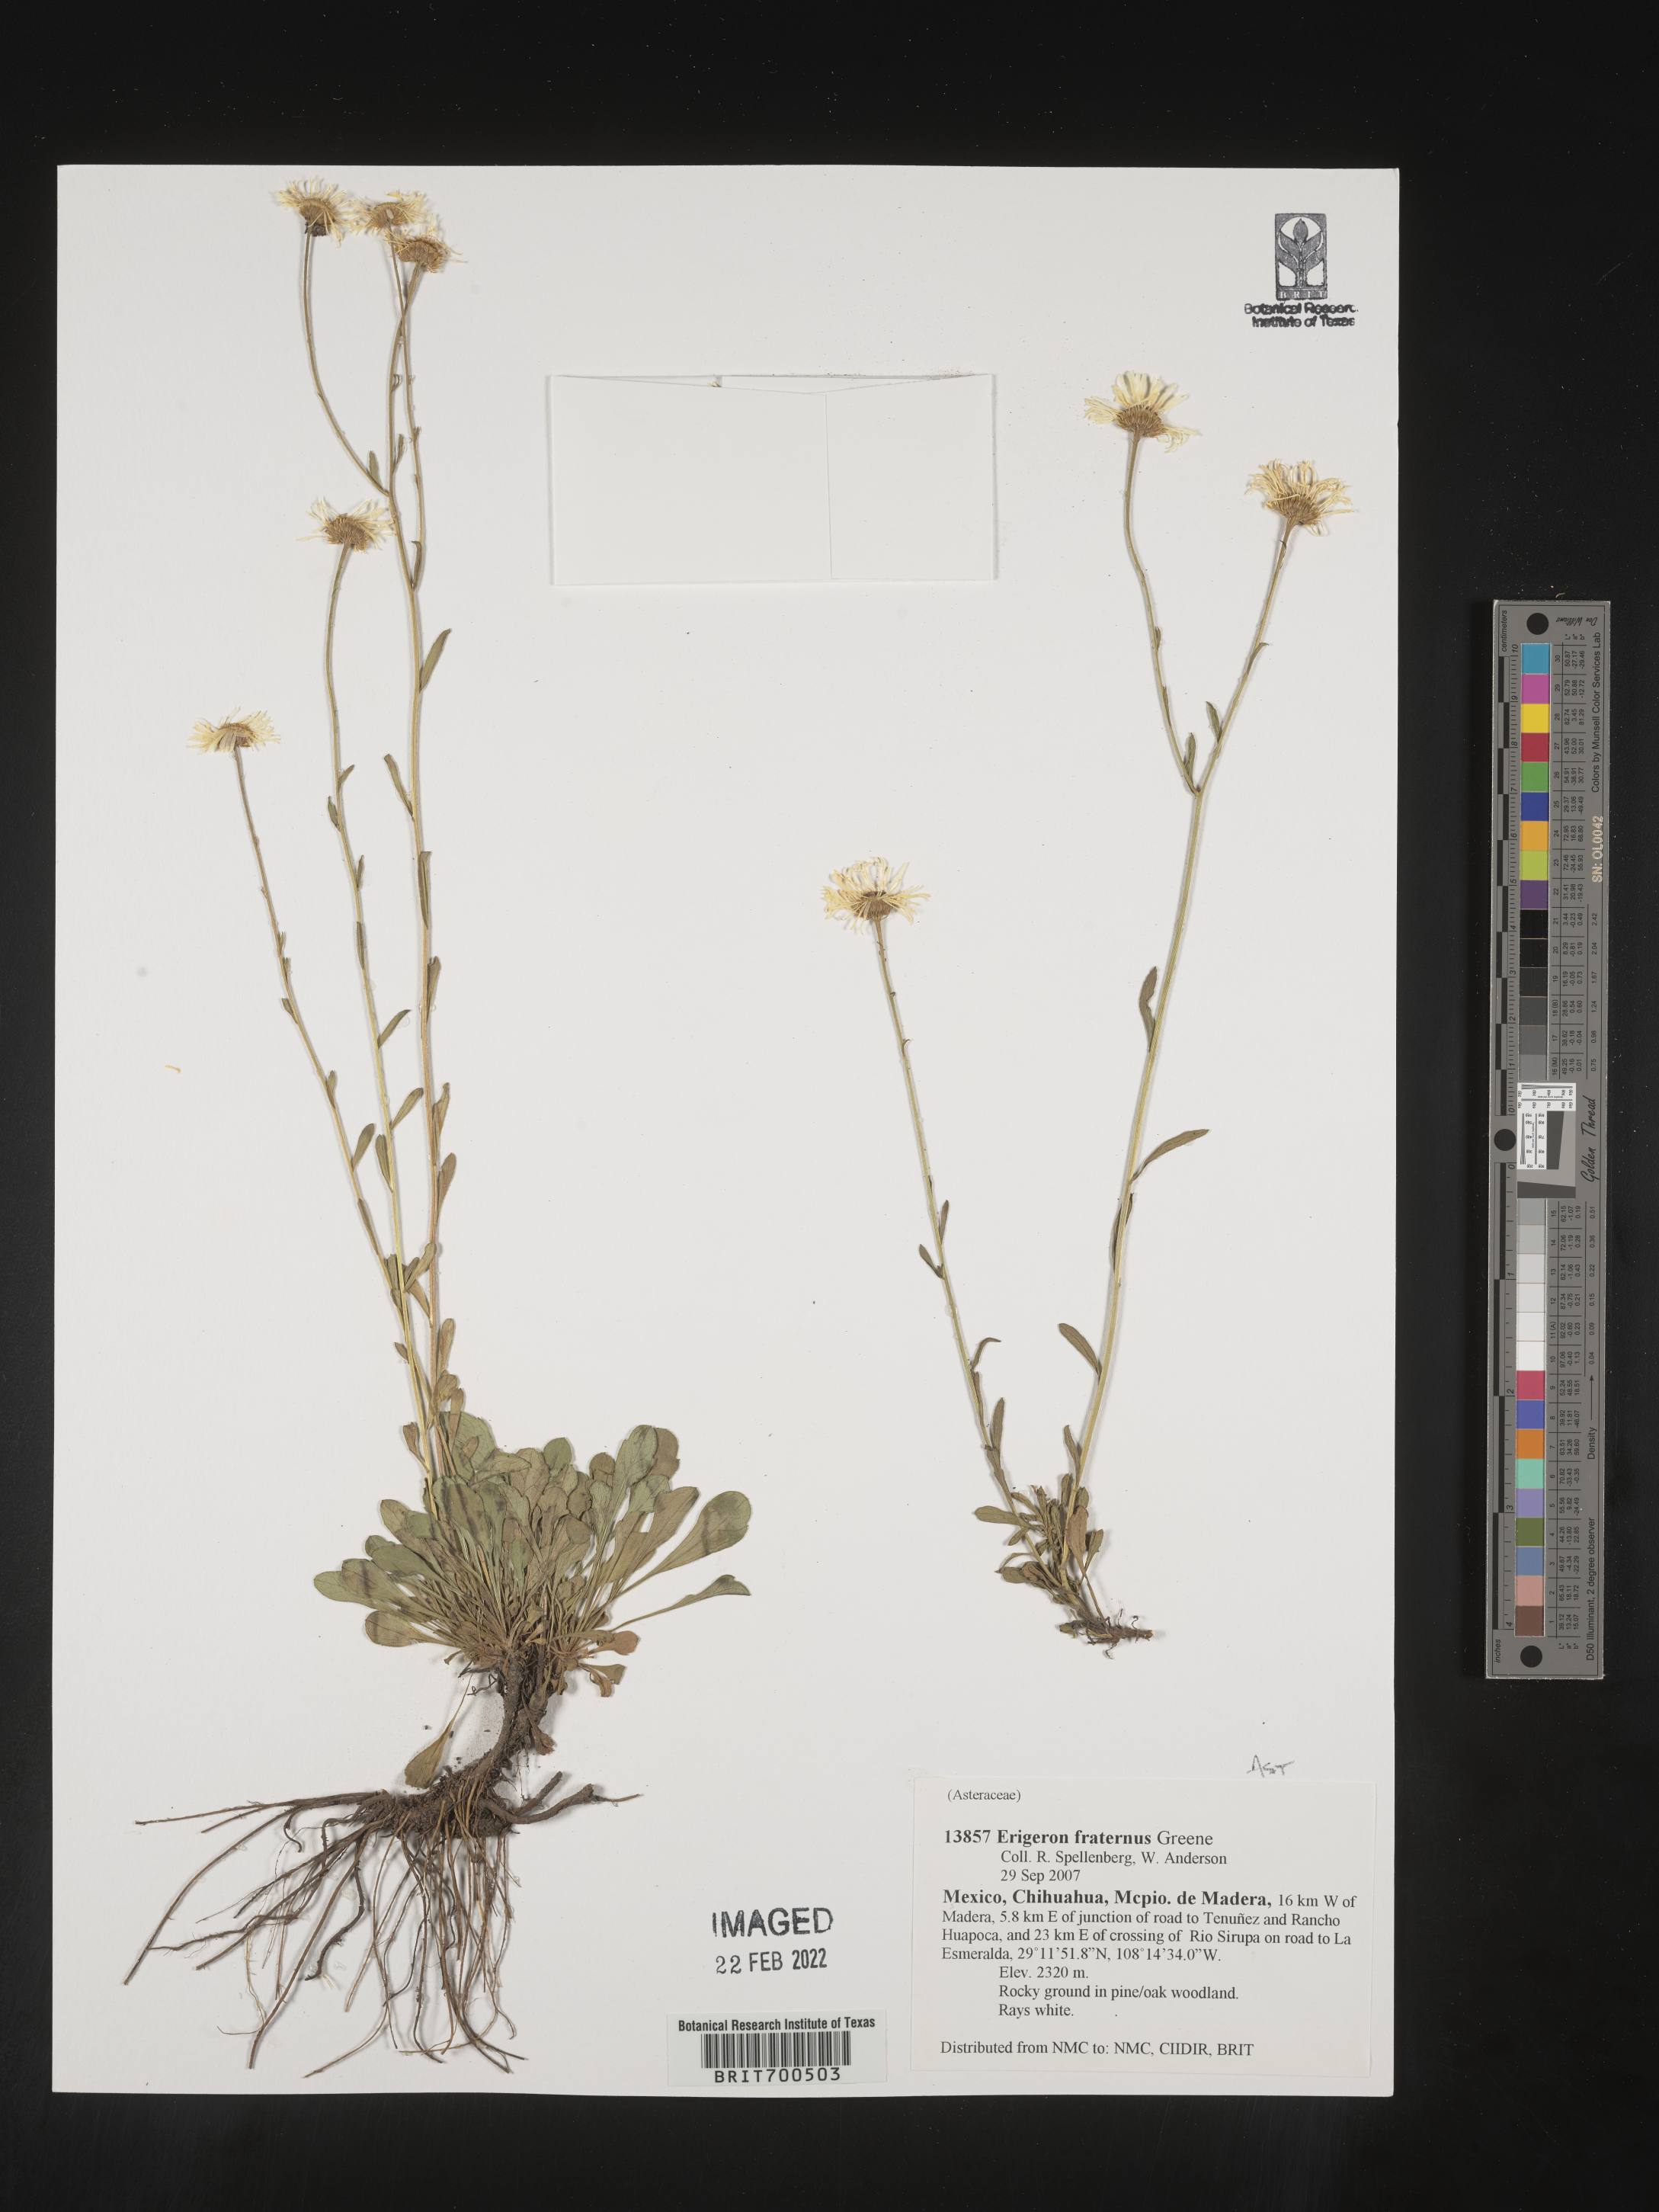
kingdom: Plantae
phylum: Tracheophyta
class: Magnoliopsida
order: Asterales
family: Asteraceae
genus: Erigeron
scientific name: Erigeron
